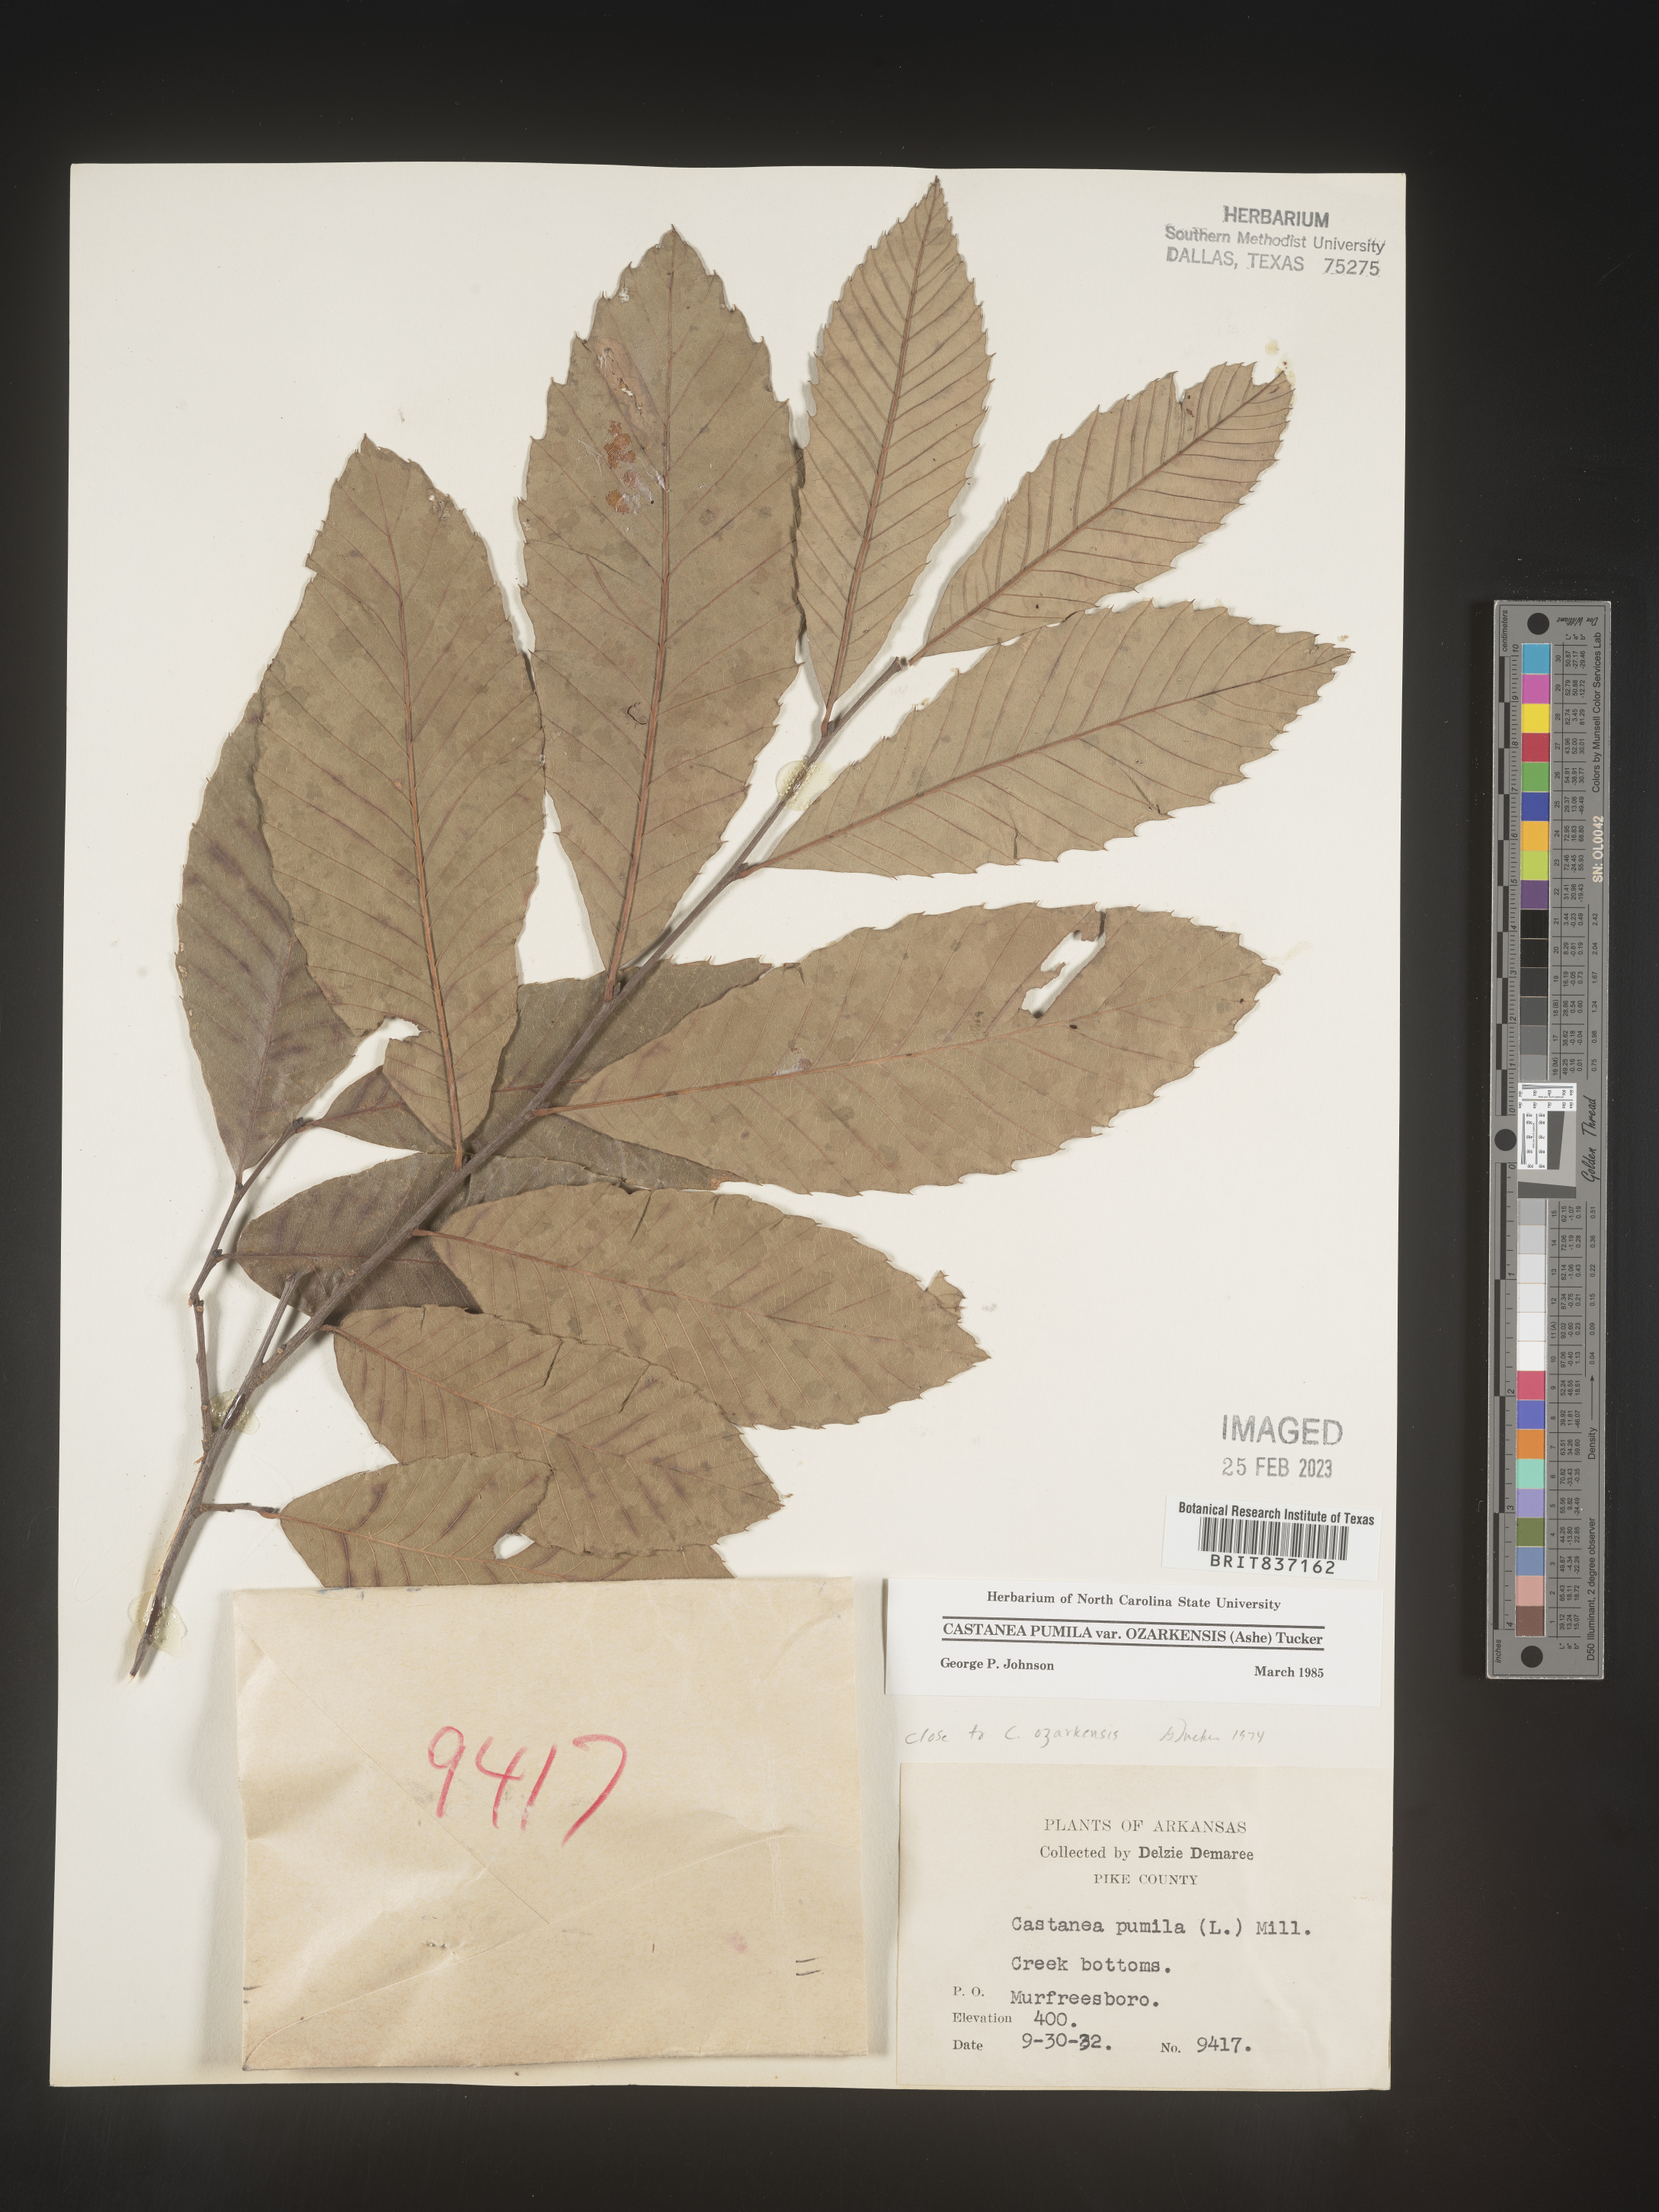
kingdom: Plantae
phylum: Tracheophyta
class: Magnoliopsida
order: Fagales
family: Fagaceae
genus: Castanea
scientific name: Castanea pumila
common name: Chinkapin
